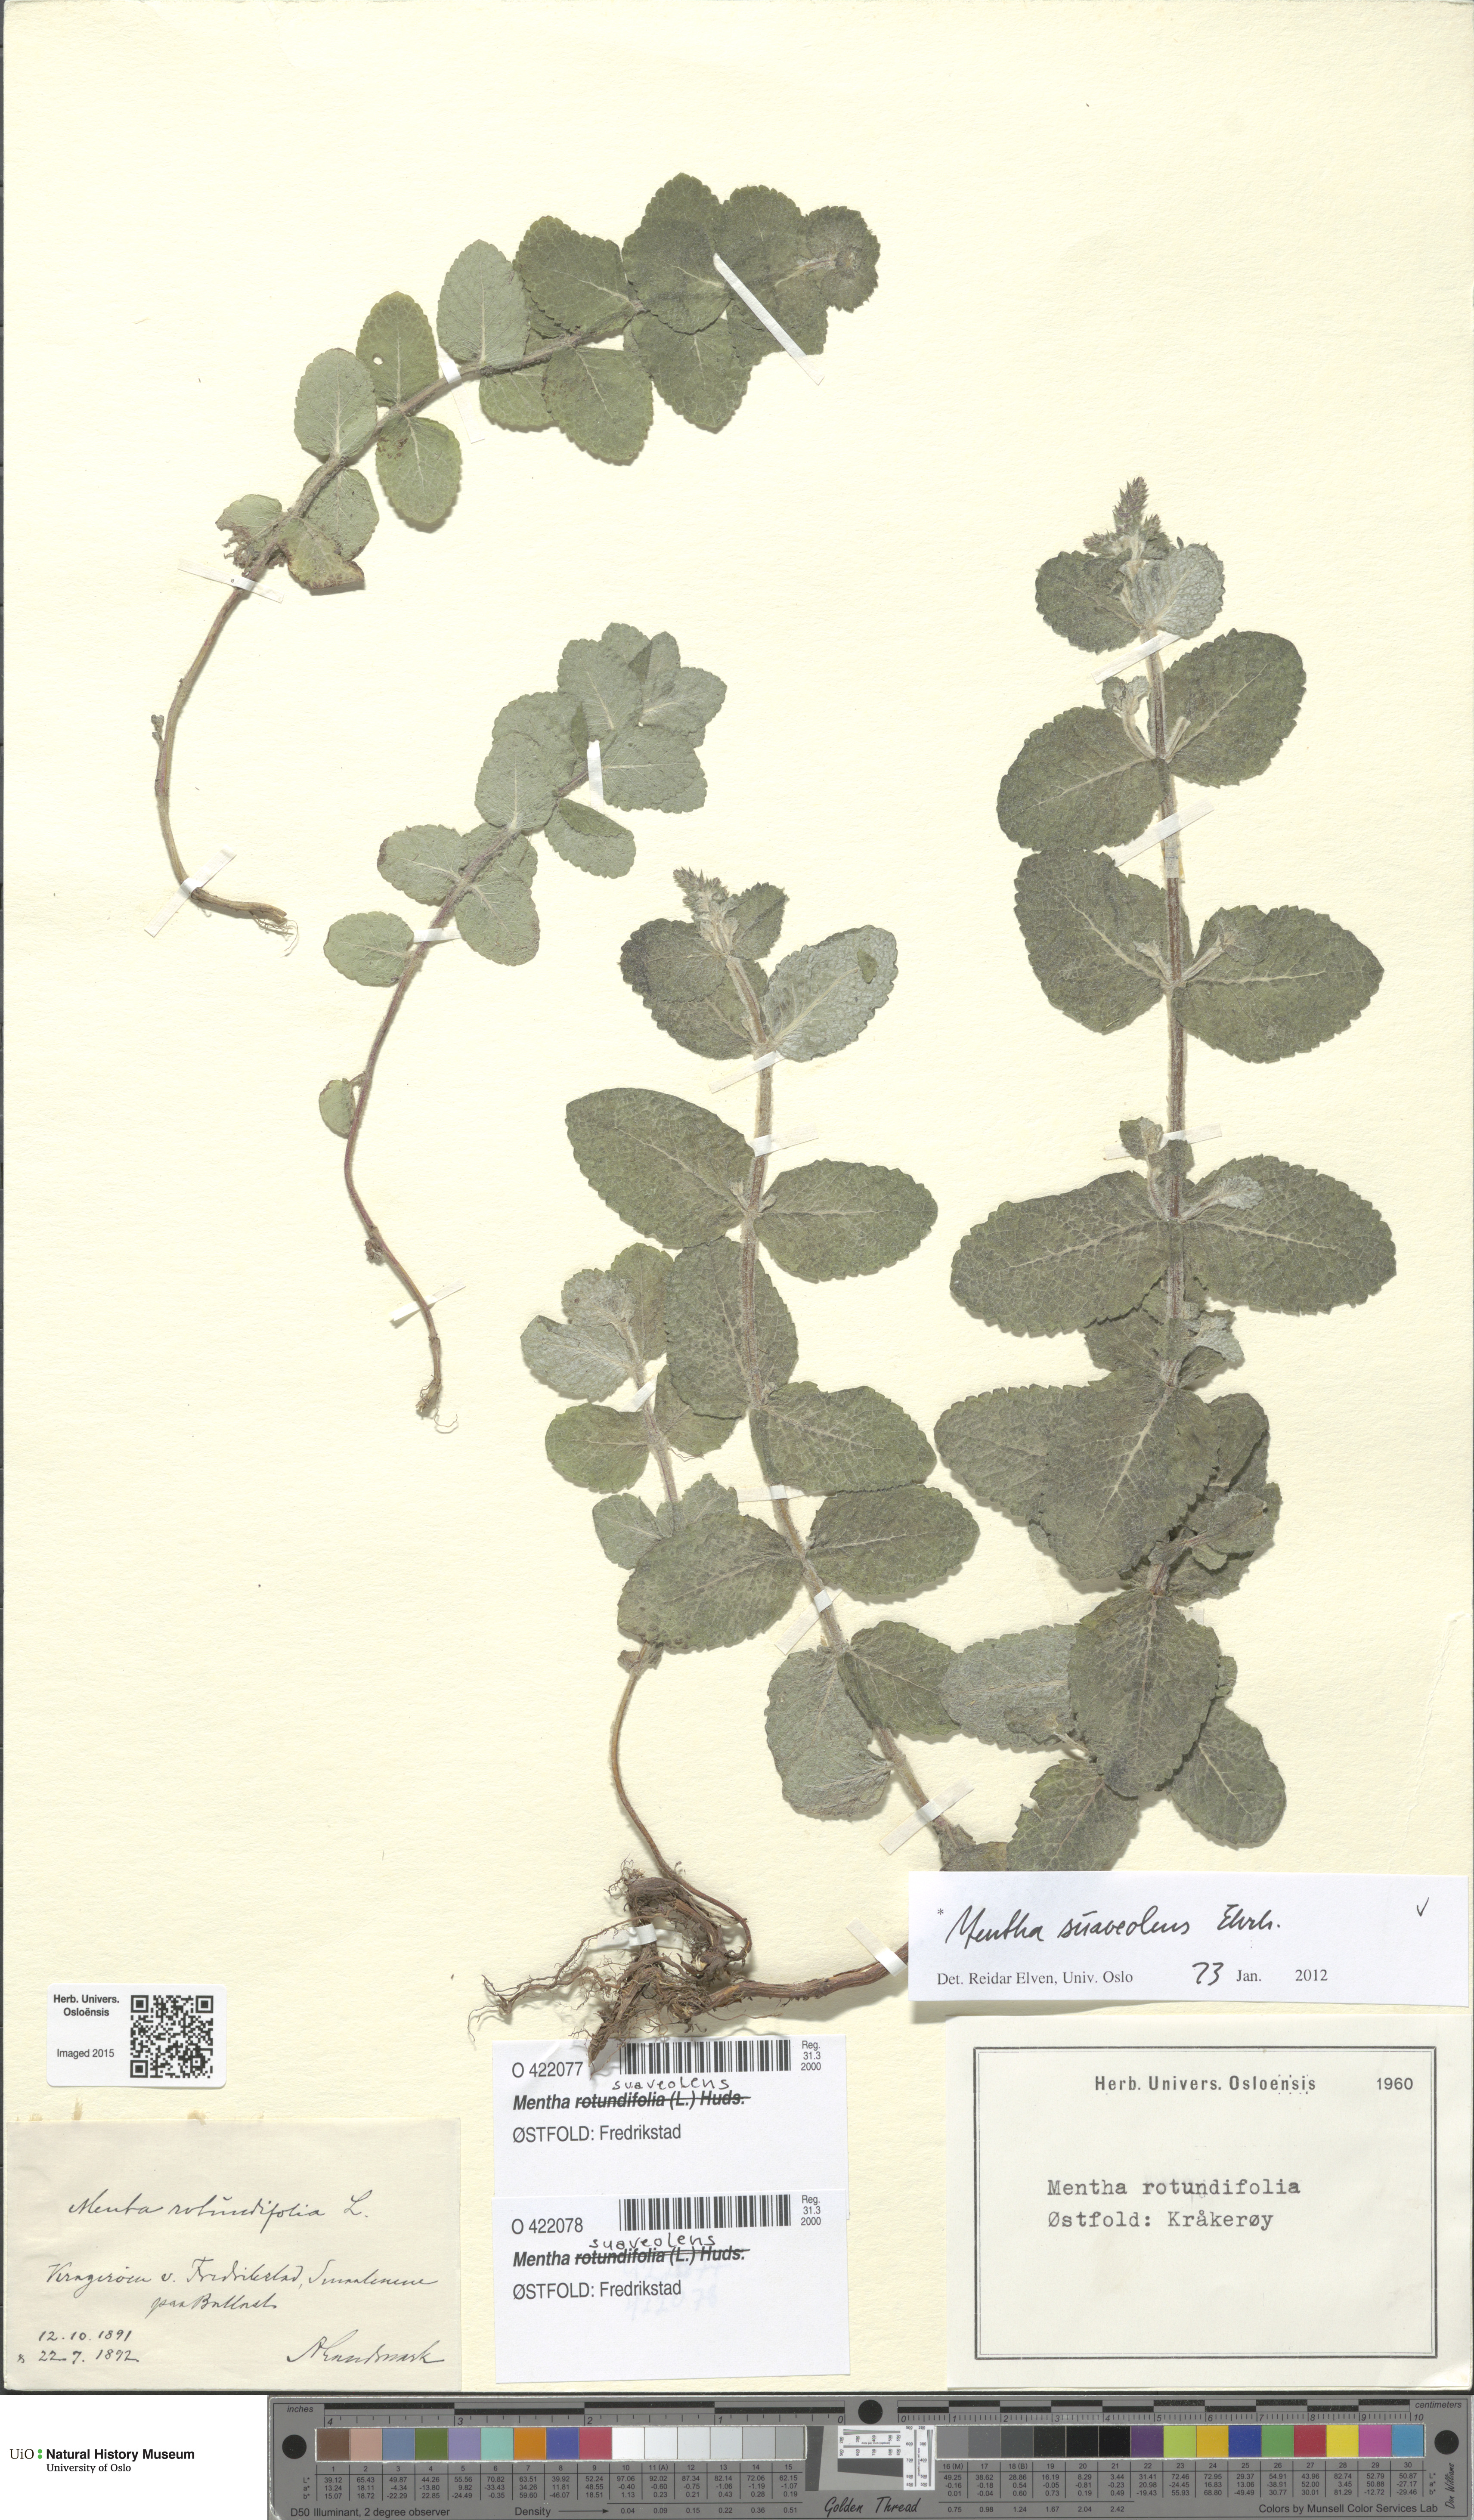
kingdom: Plantae
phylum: Tracheophyta
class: Magnoliopsida
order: Lamiales
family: Lamiaceae
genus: Mentha
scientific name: Mentha suaveolens
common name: Apple mint
